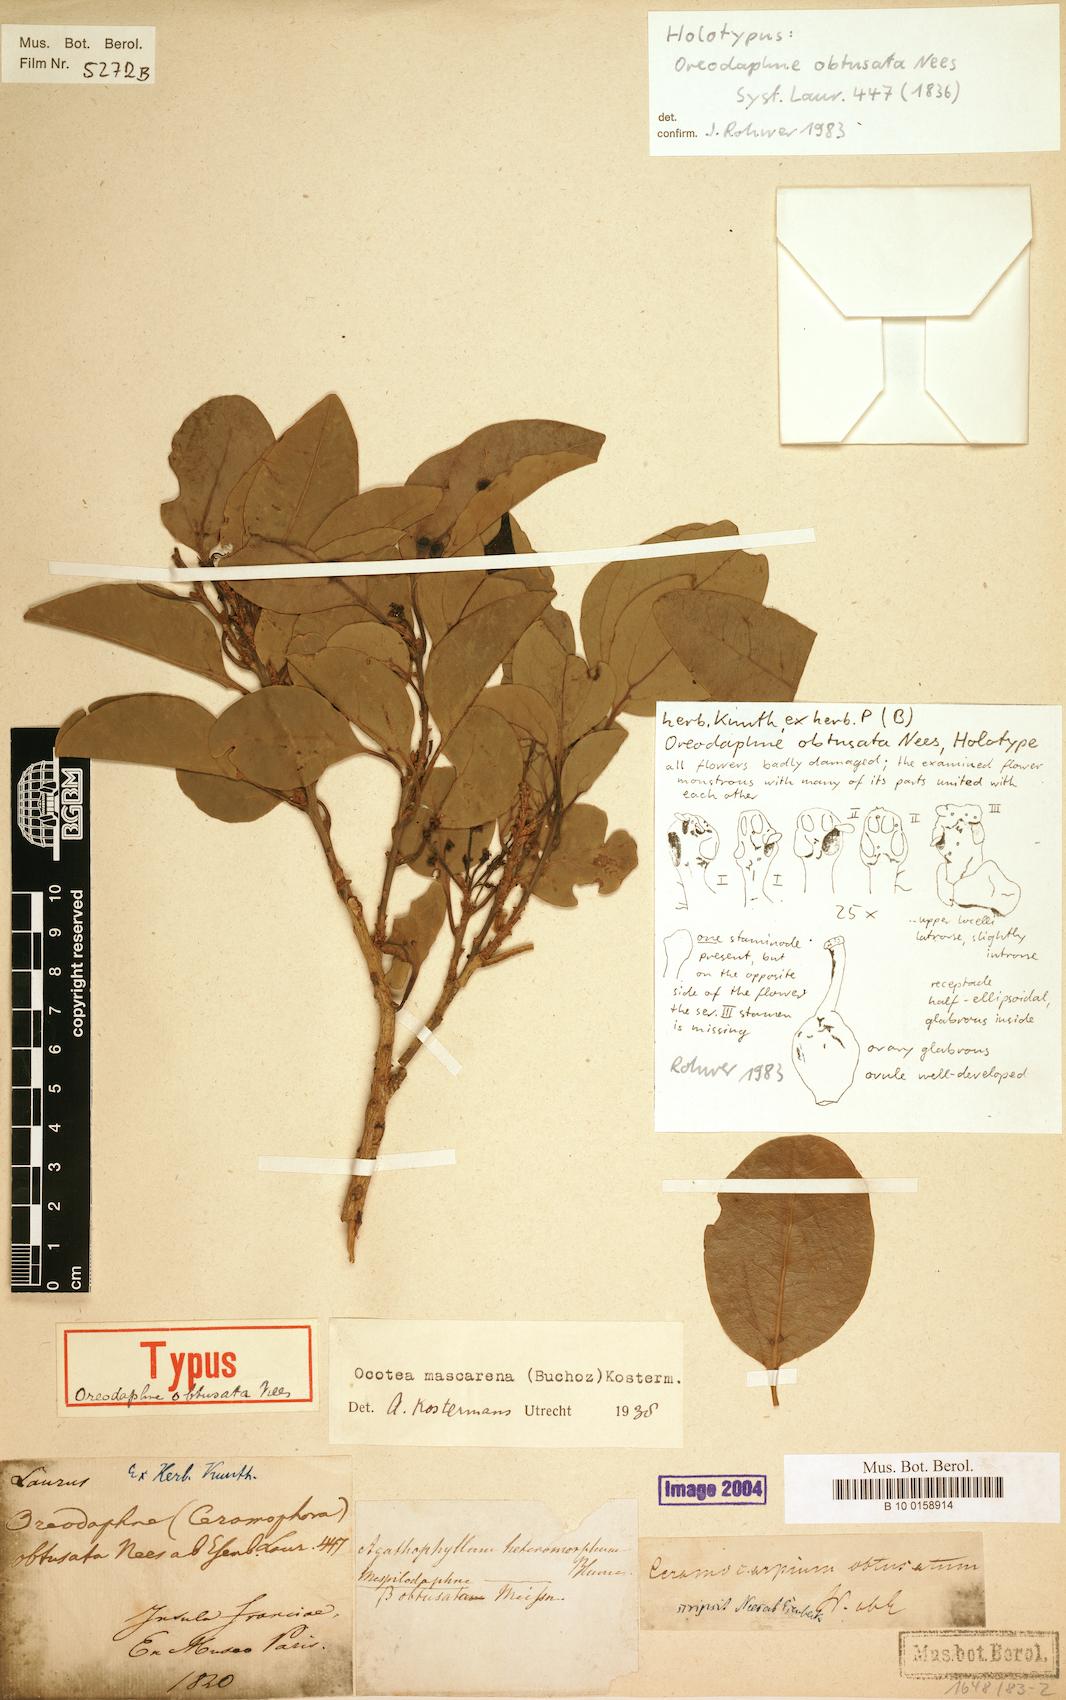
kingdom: Plantae
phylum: Tracheophyta
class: Magnoliopsida
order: Laurales
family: Lauraceae
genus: Mespilodaphne
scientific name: Mespilodaphne cupularis
